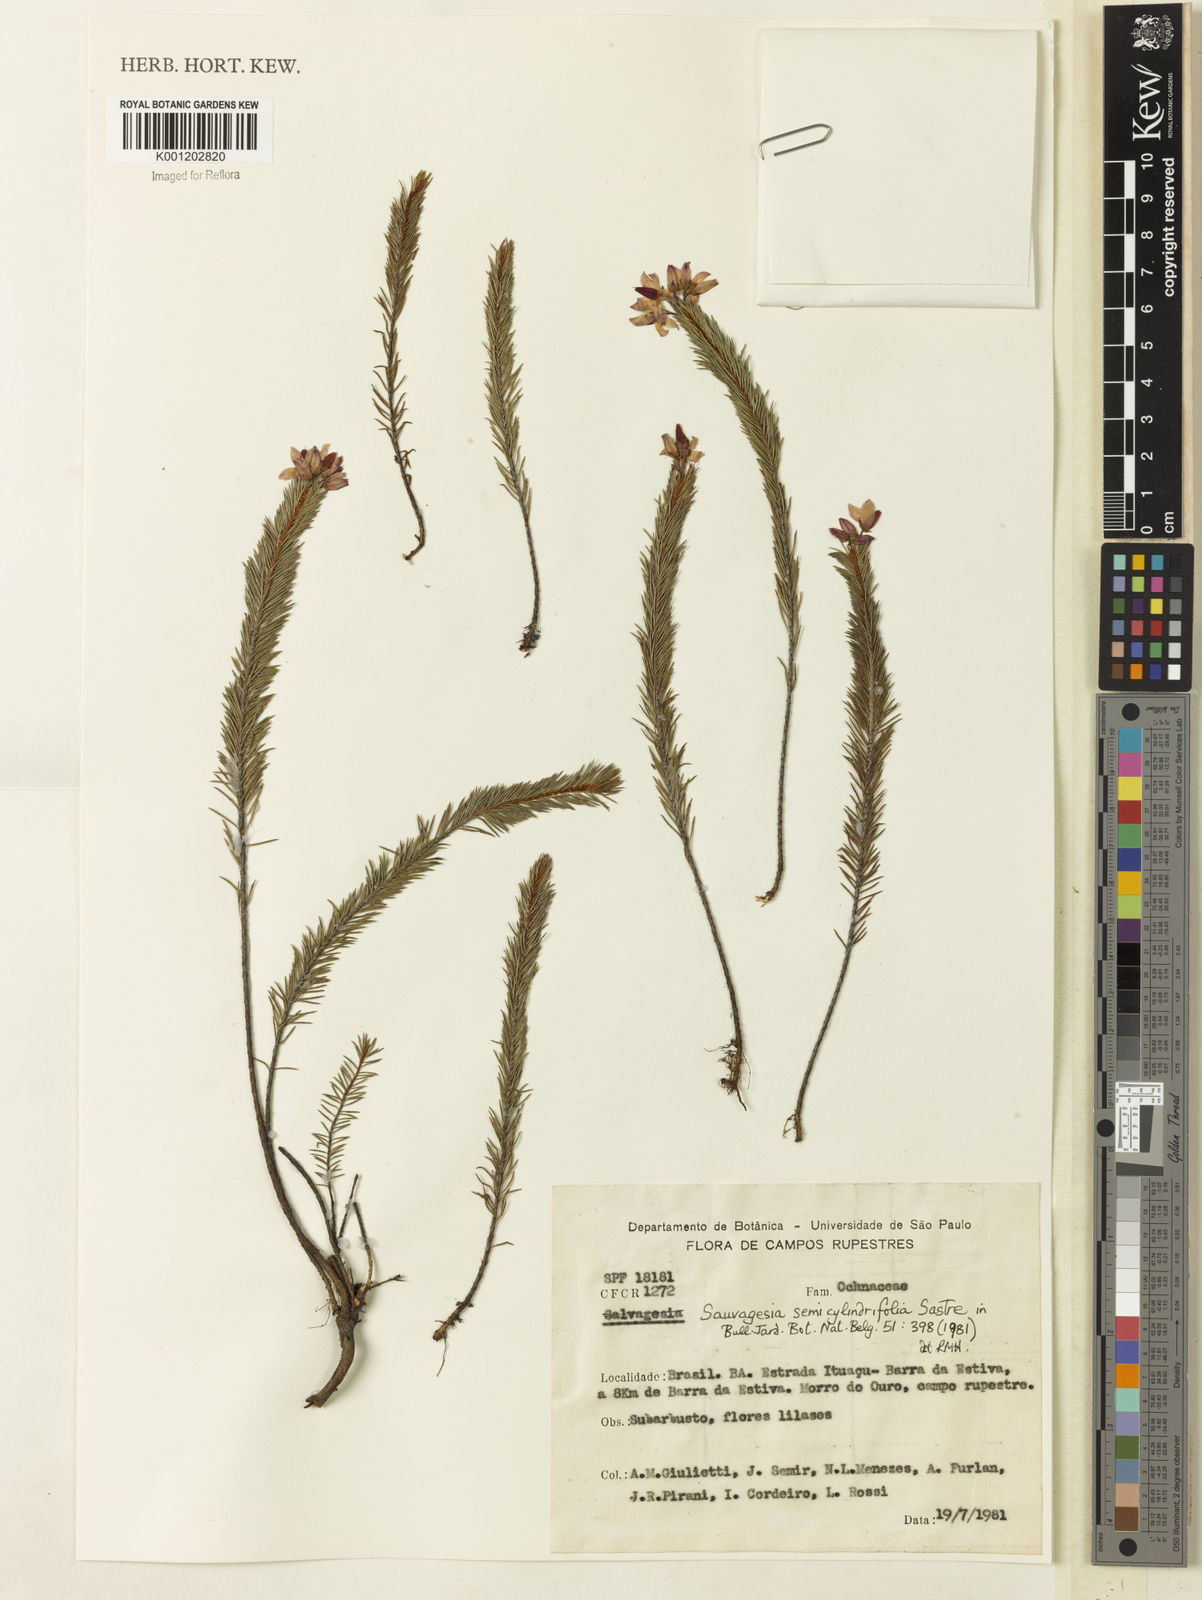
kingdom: Plantae
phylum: Tracheophyta
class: Magnoliopsida
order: Malpighiales
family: Ochnaceae
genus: Sauvagesia
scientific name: Sauvagesia semicylindrifolia
